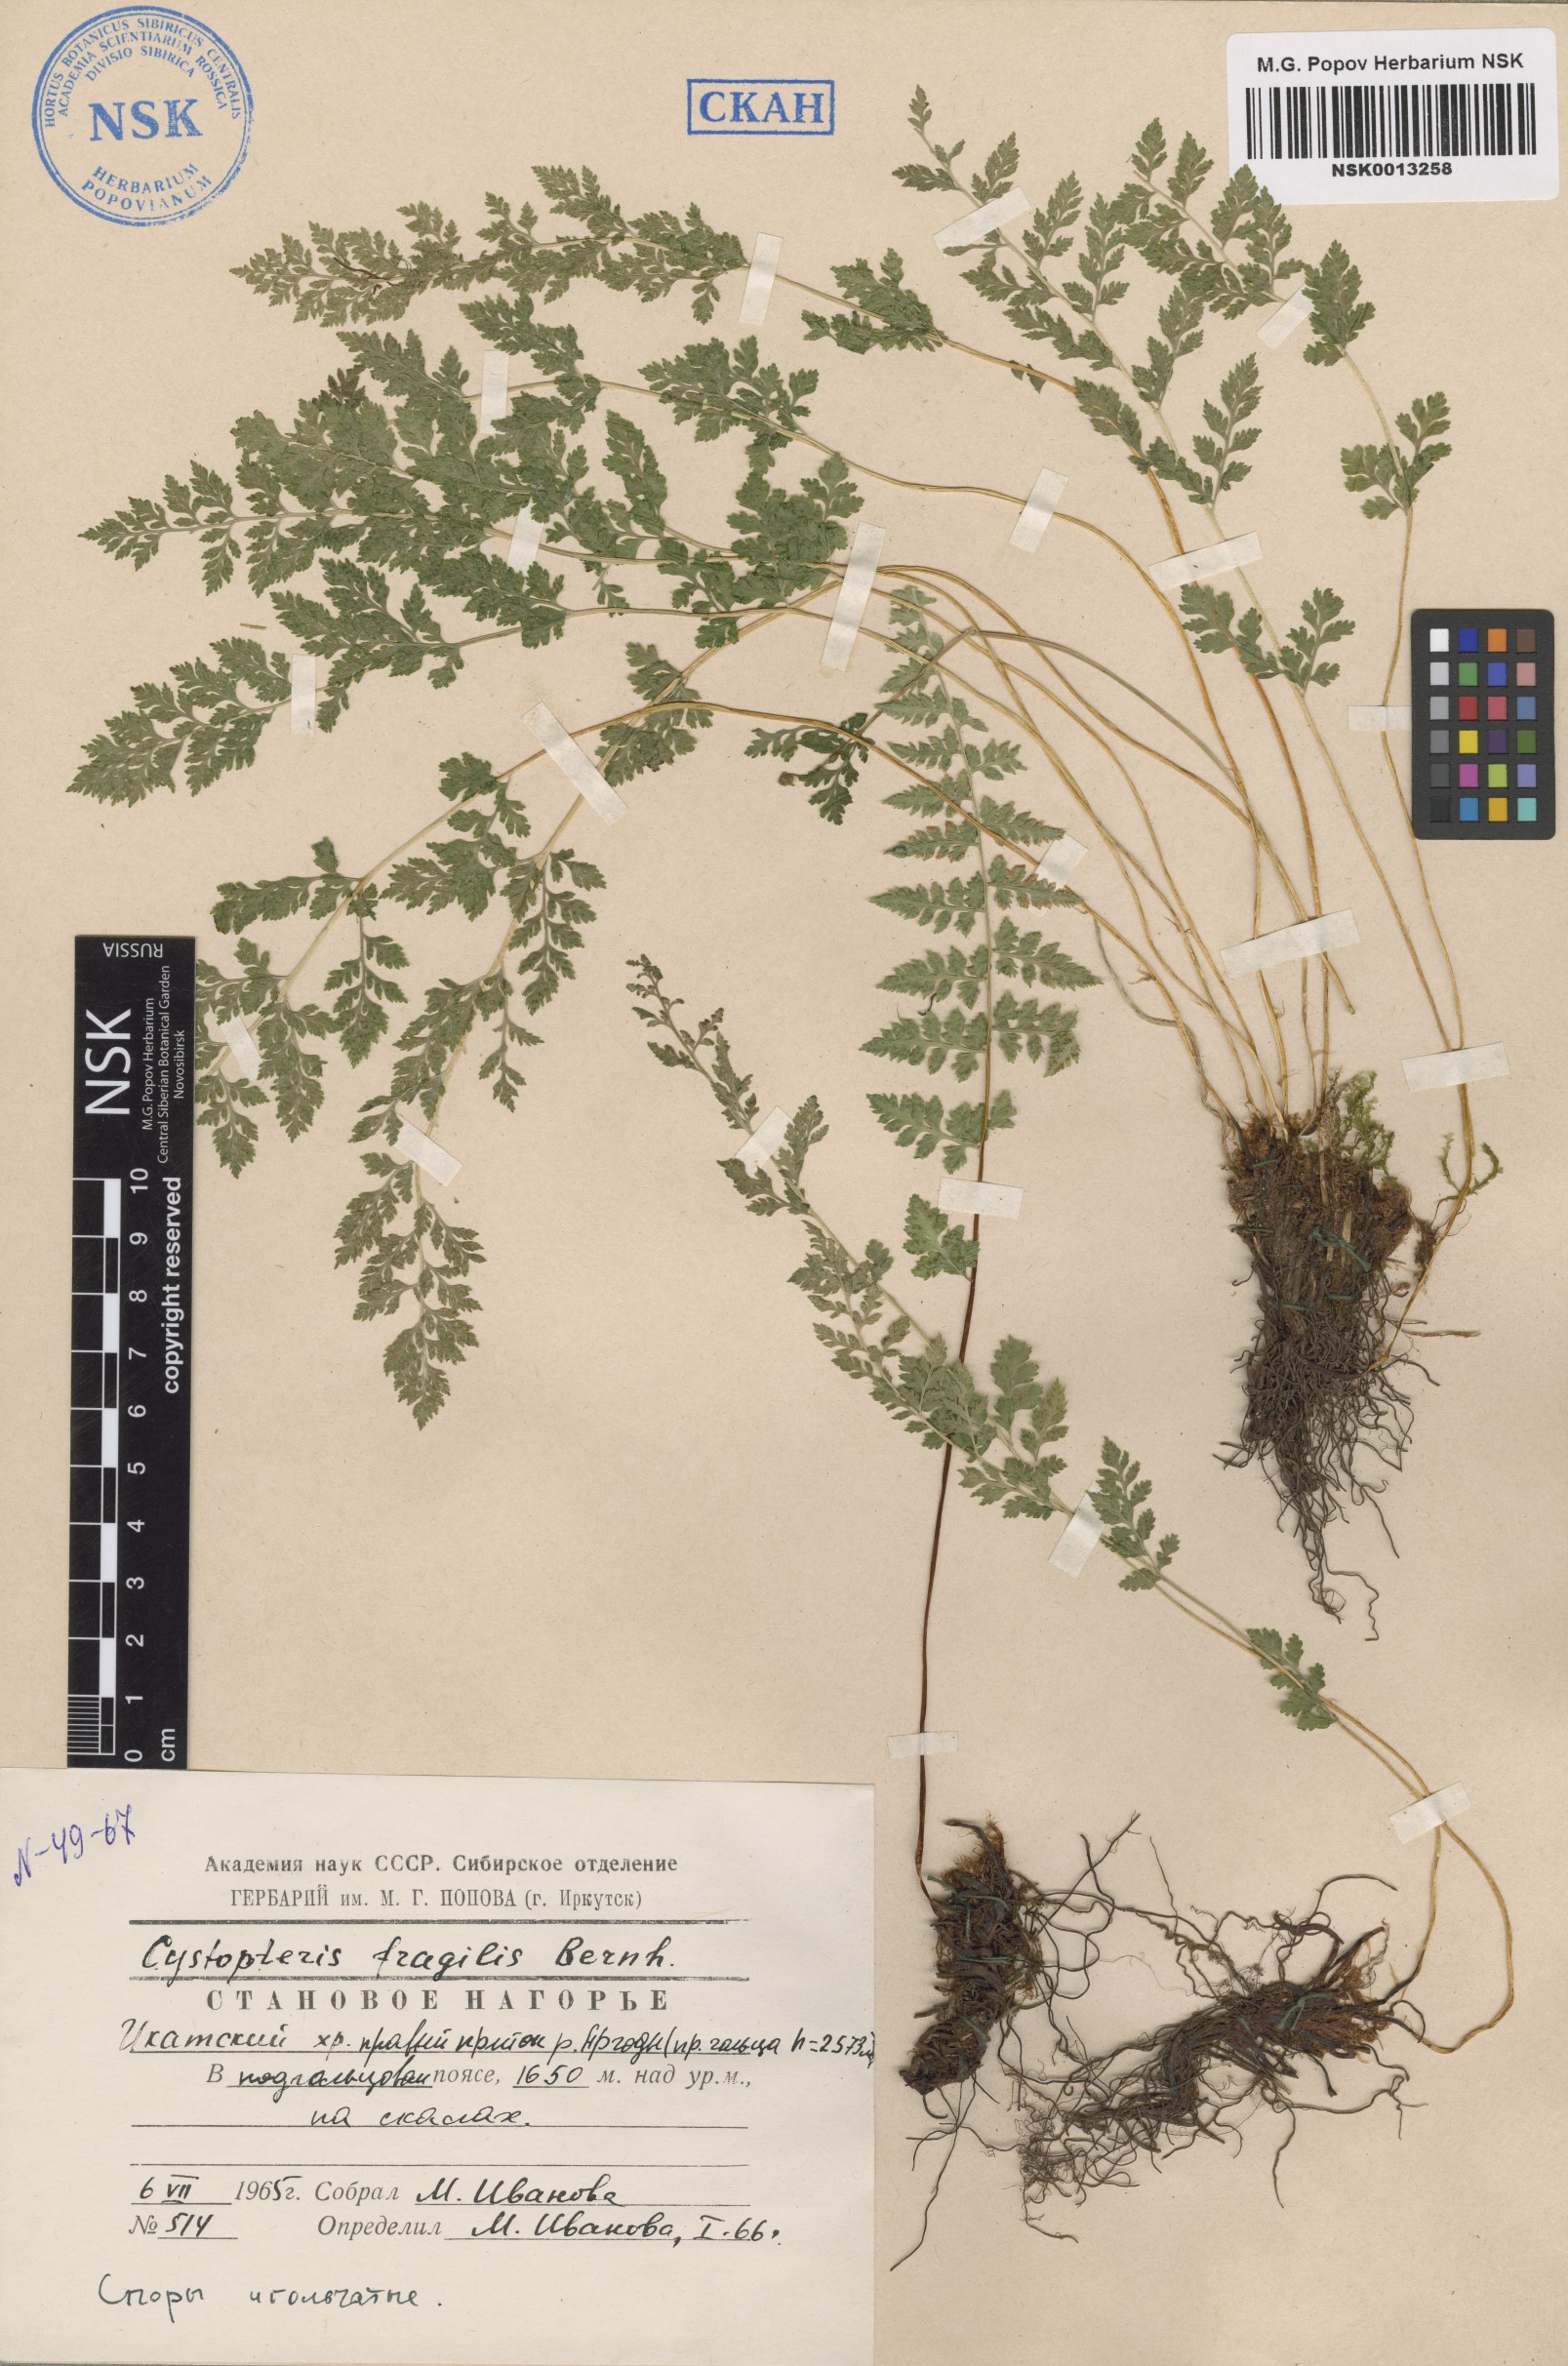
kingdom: Plantae
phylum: Tracheophyta
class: Polypodiopsida
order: Polypodiales
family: Cystopteridaceae
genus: Cystopteris
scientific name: Cystopteris fragilis
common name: Brittle bladder fern
